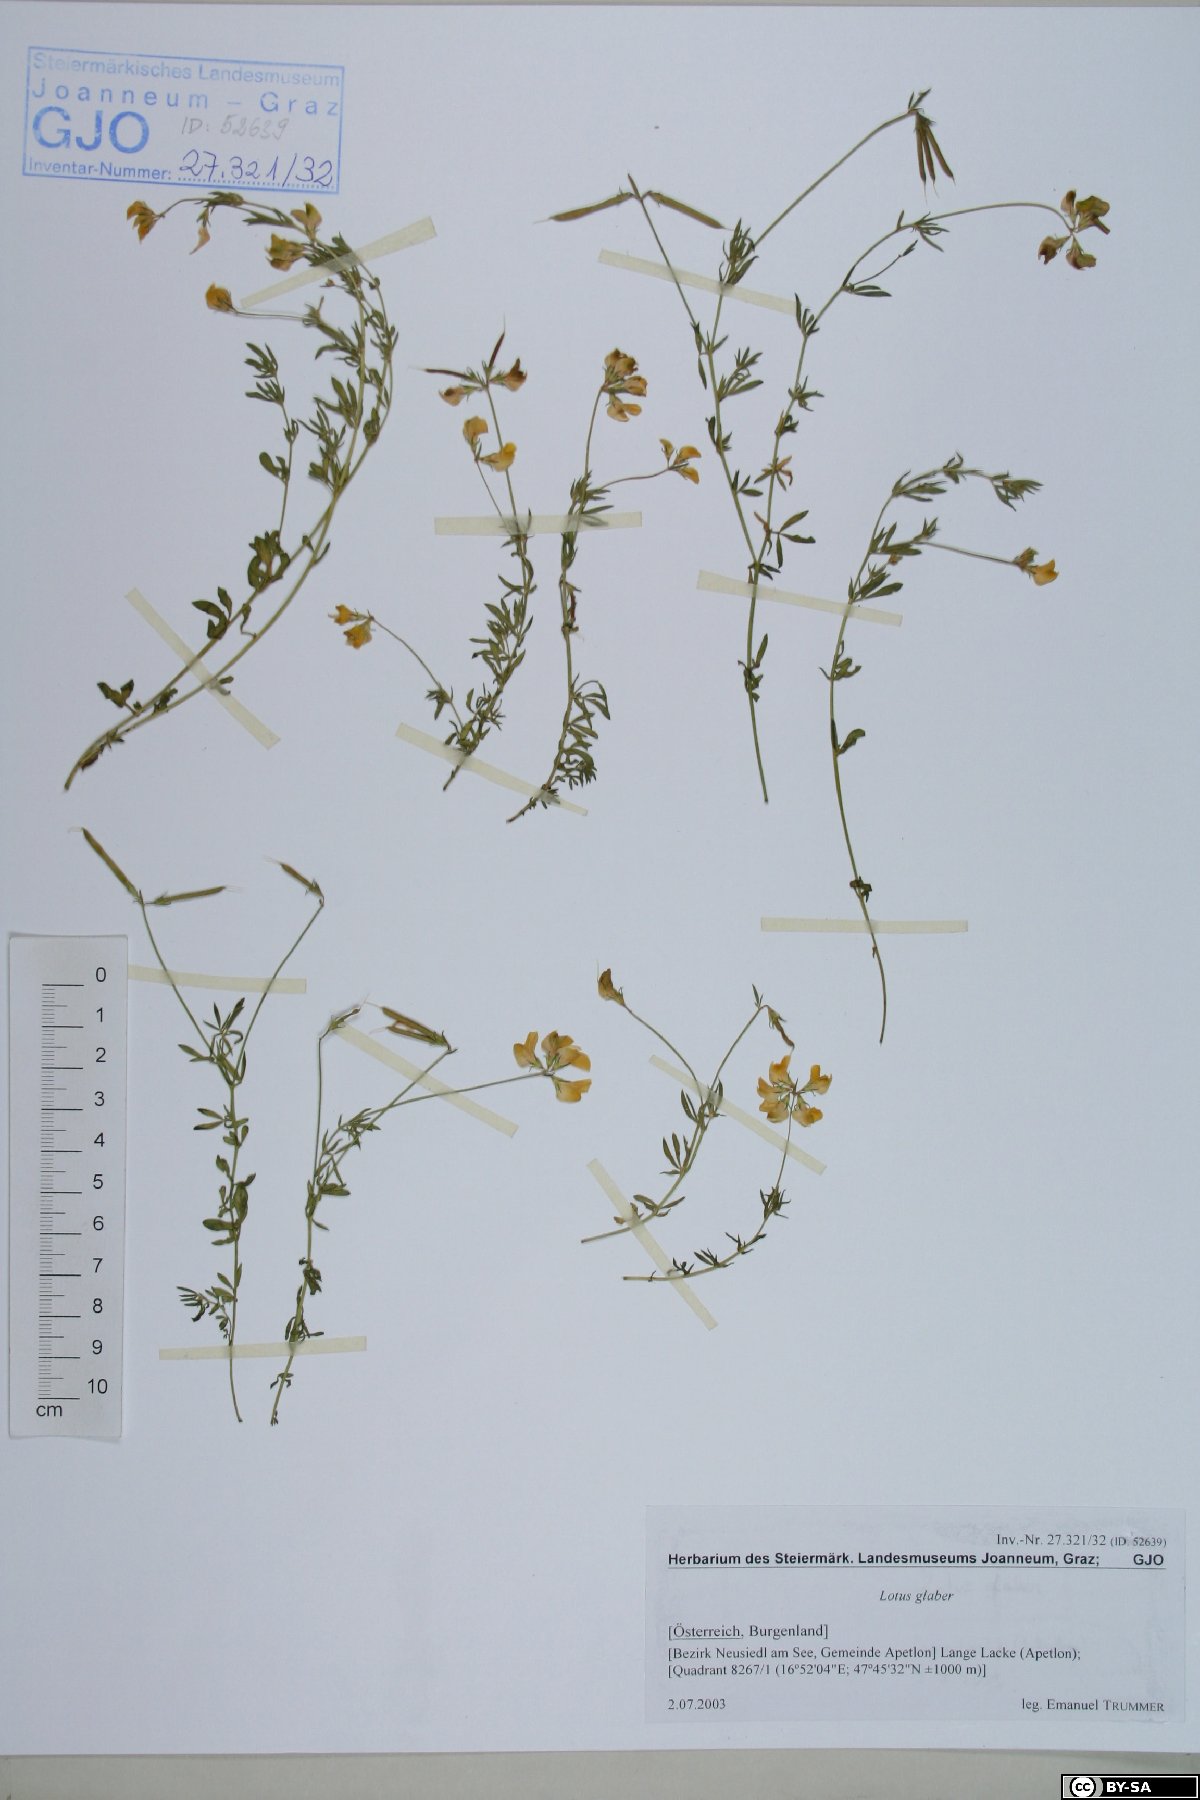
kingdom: Plantae
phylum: Tracheophyta
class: Magnoliopsida
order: Fabales
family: Fabaceae
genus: Lotus
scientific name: Lotus tenuis
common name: Narrow-leaved bird's-foot-trefoil
